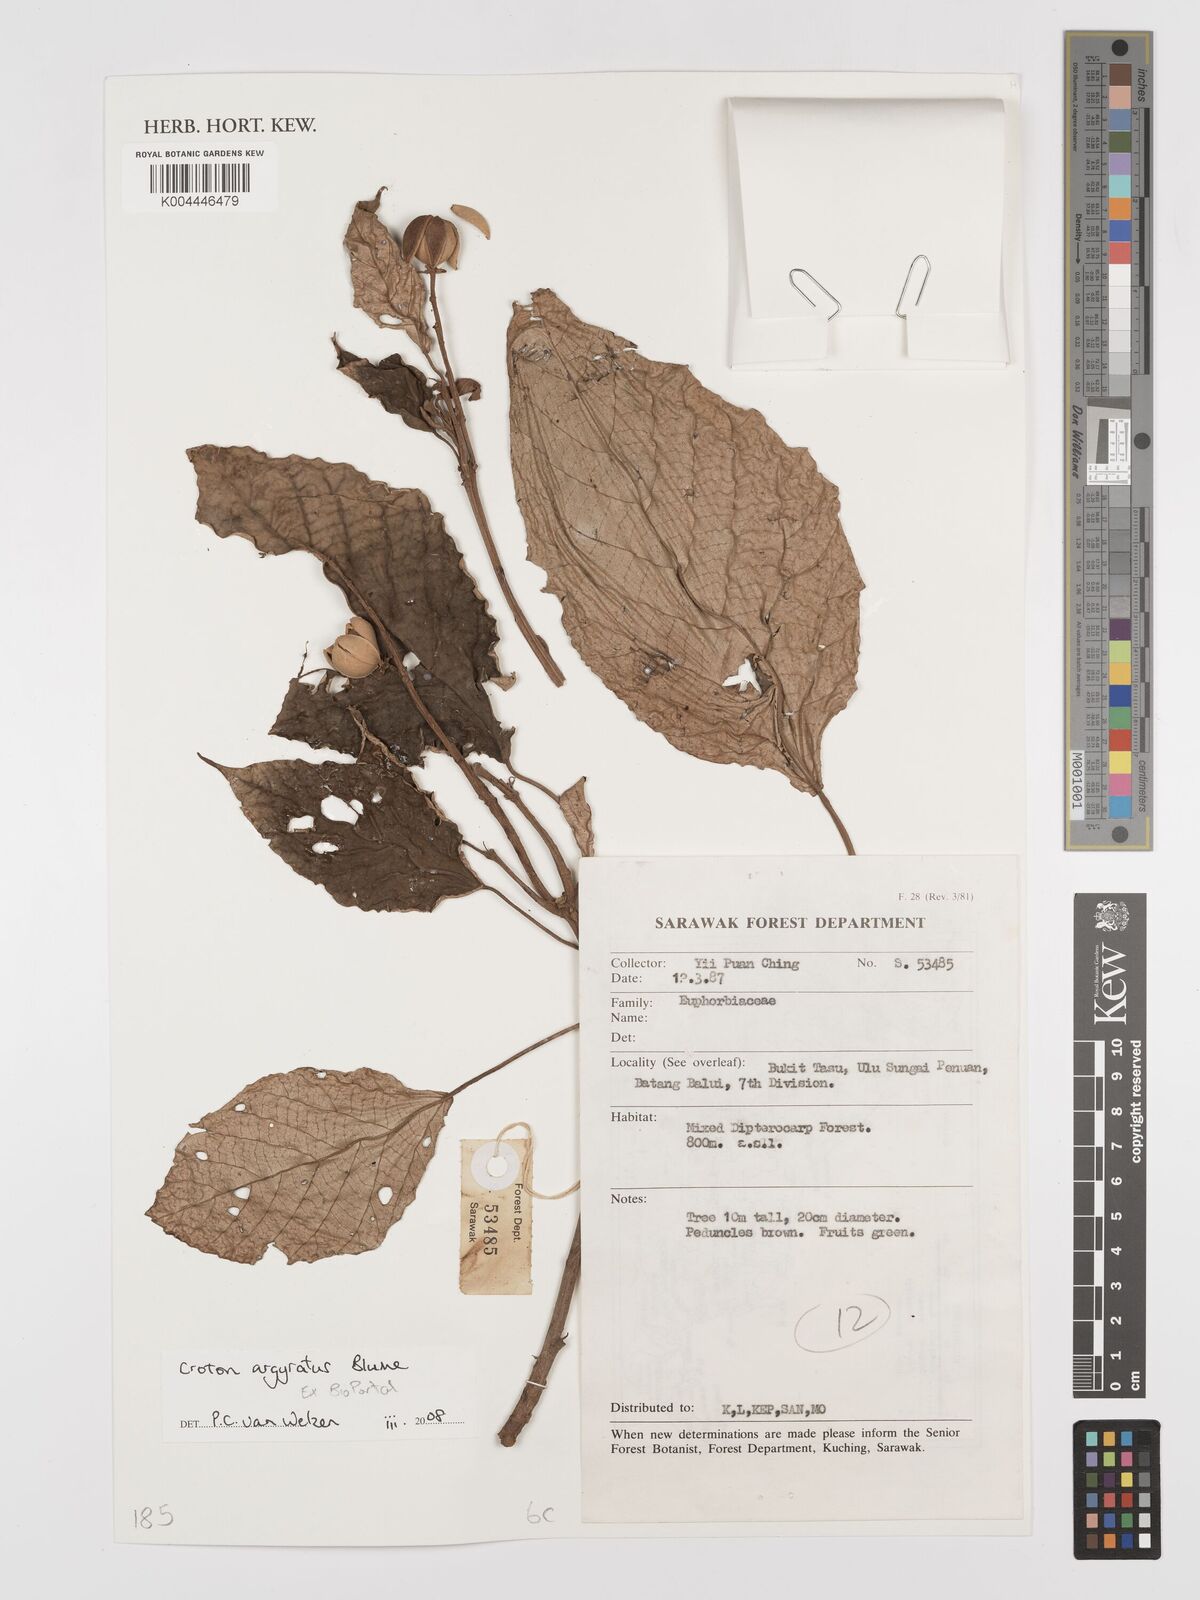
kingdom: Plantae
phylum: Tracheophyta
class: Magnoliopsida
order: Malpighiales
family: Euphorbiaceae
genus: Croton
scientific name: Croton argyratus
